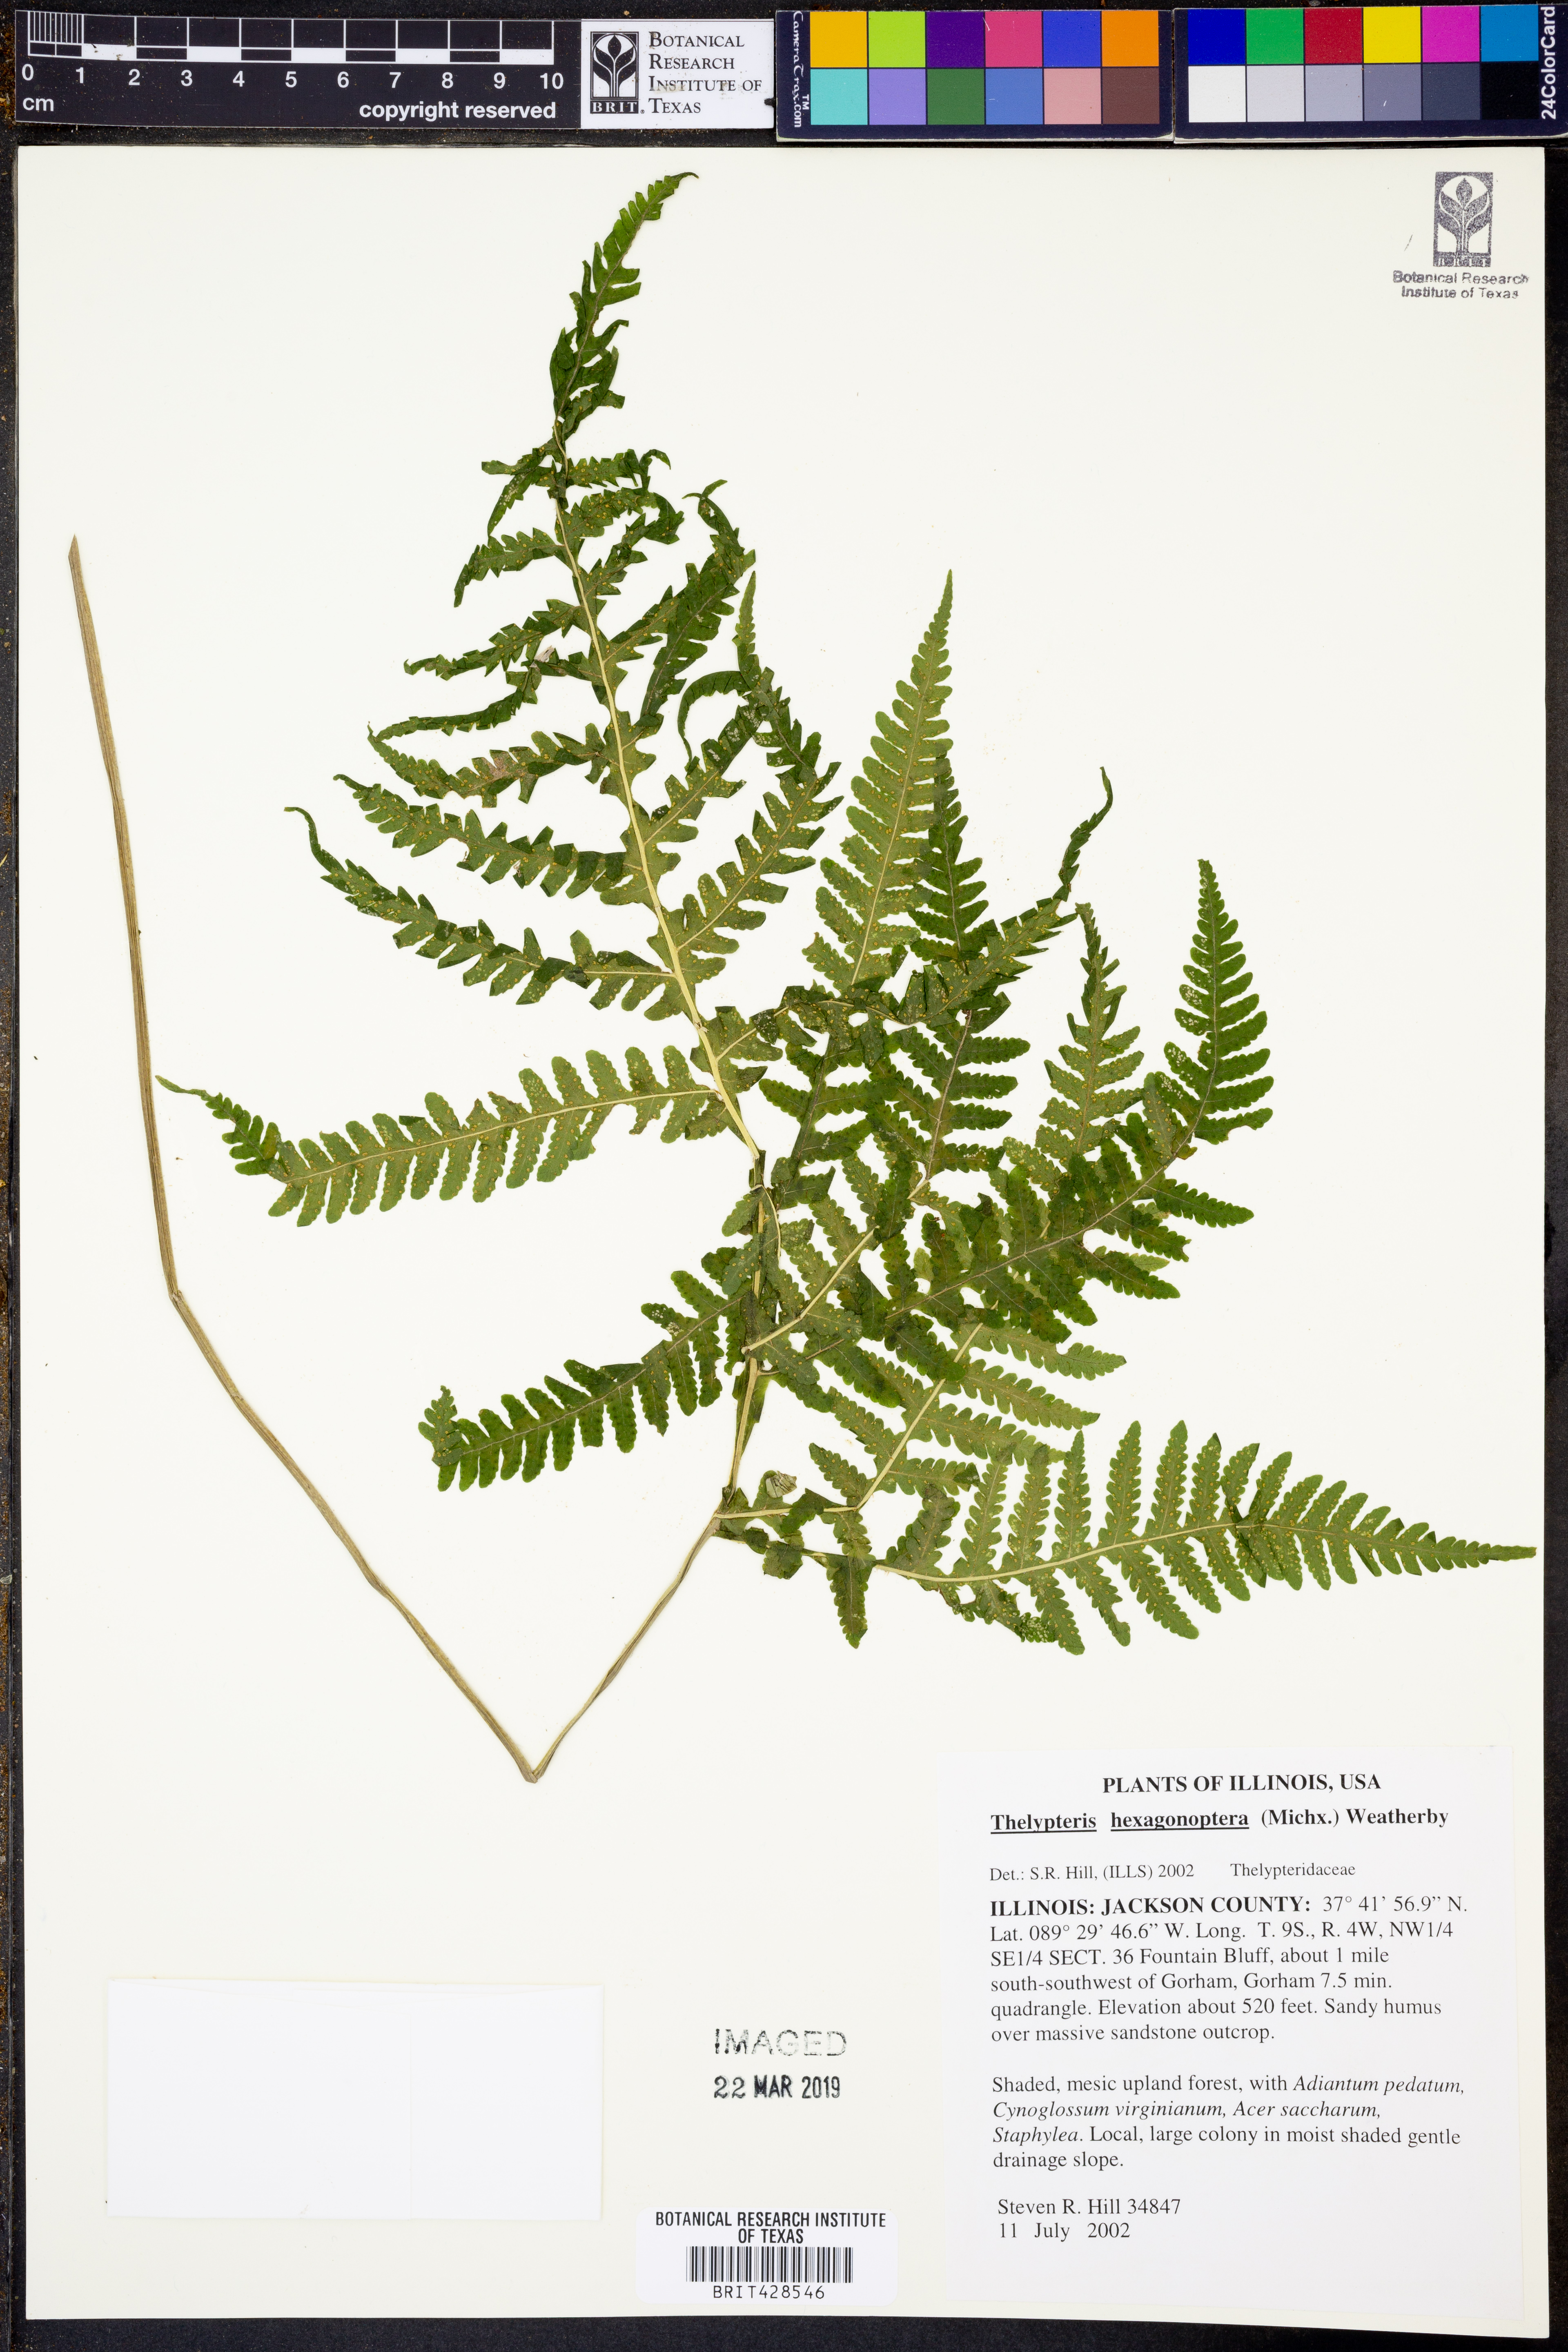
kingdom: Plantae
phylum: Tracheophyta
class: Polypodiopsida
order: Polypodiales
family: Thelypteridaceae
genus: Phegopteris
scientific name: Phegopteris hexagonoptera
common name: Broad beech fern
